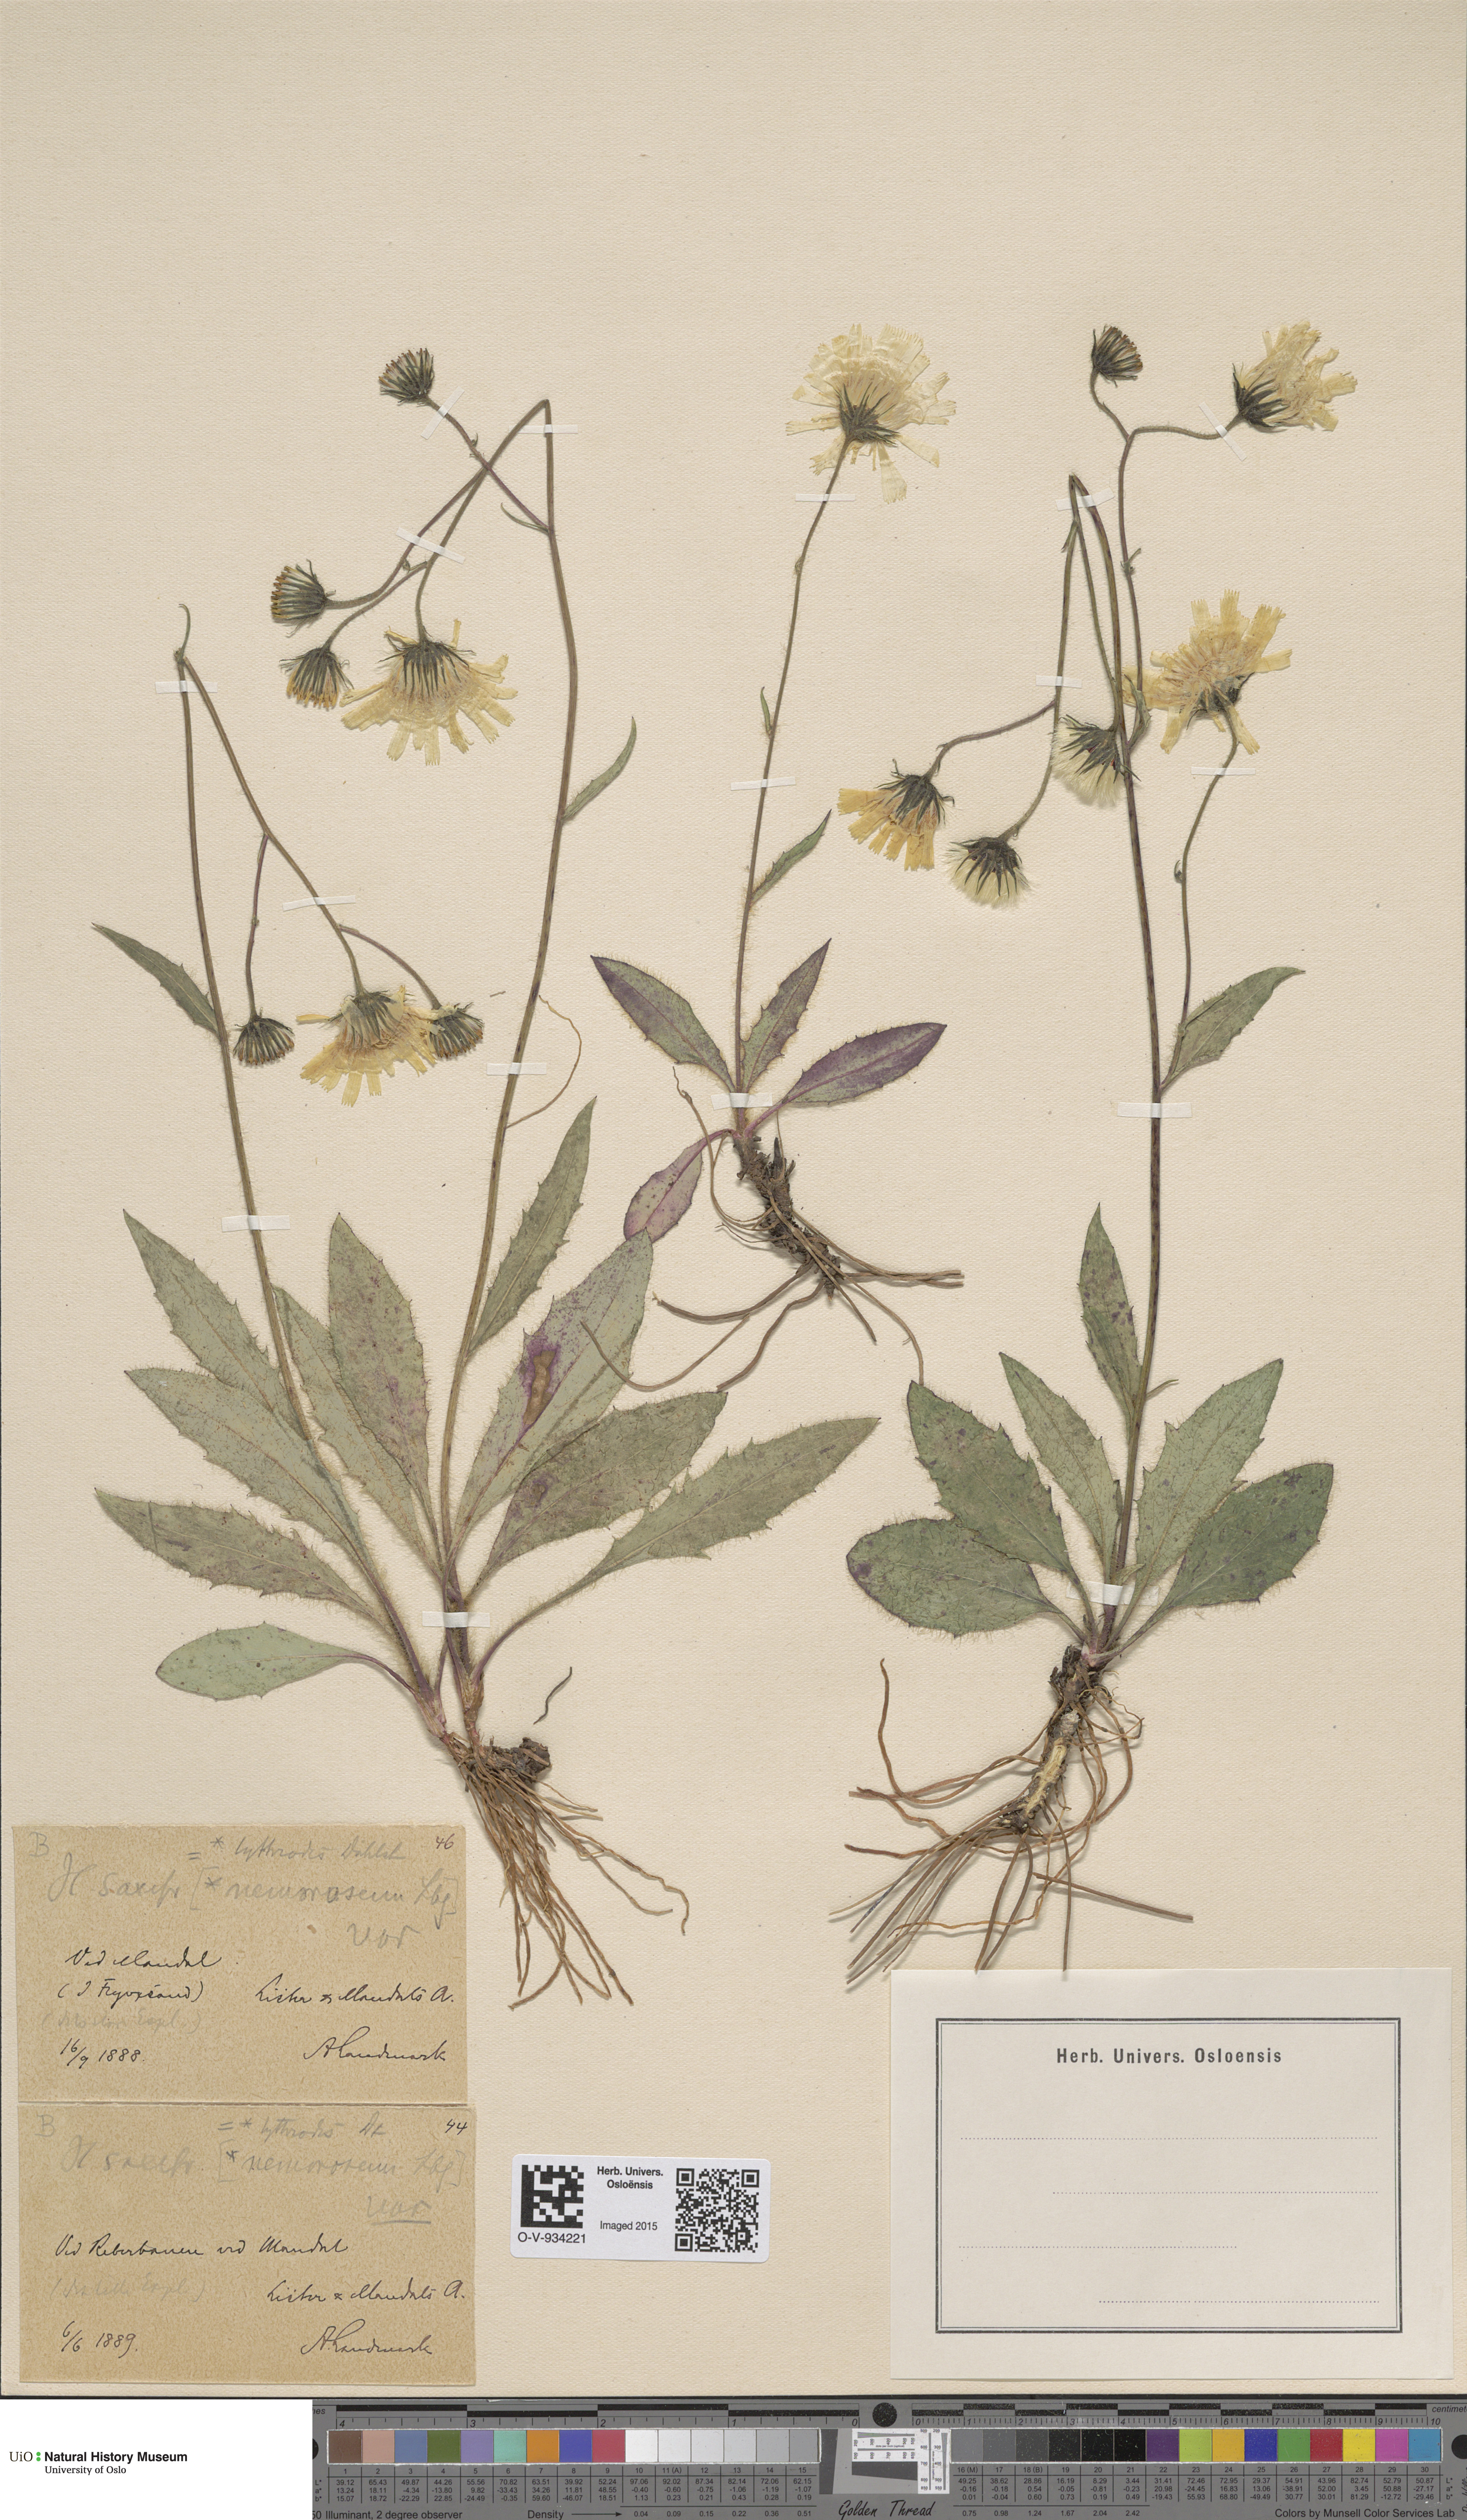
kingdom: Plantae
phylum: Tracheophyta
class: Magnoliopsida
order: Asterales
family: Asteraceae
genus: Hieracium
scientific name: Hieracium saxifragum
